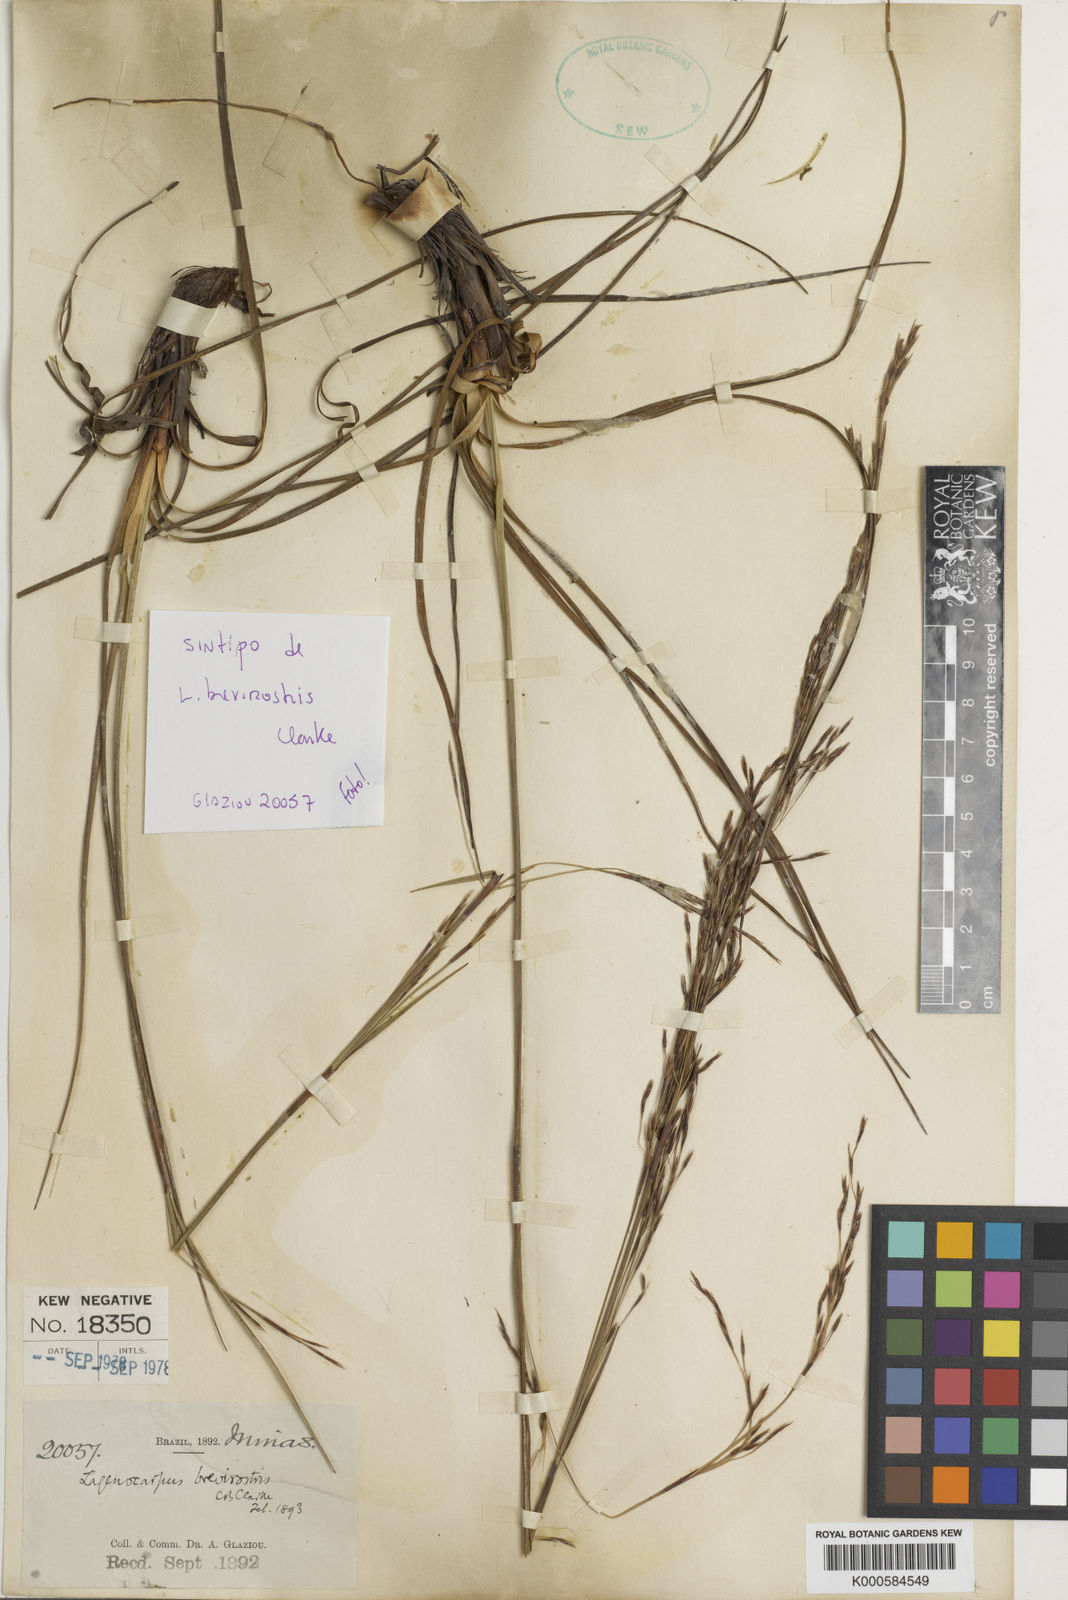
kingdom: Plantae
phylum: Tracheophyta
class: Liliopsida
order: Poales
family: Cyperaceae
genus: Lagenocarpus
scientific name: Lagenocarpus rigidus
